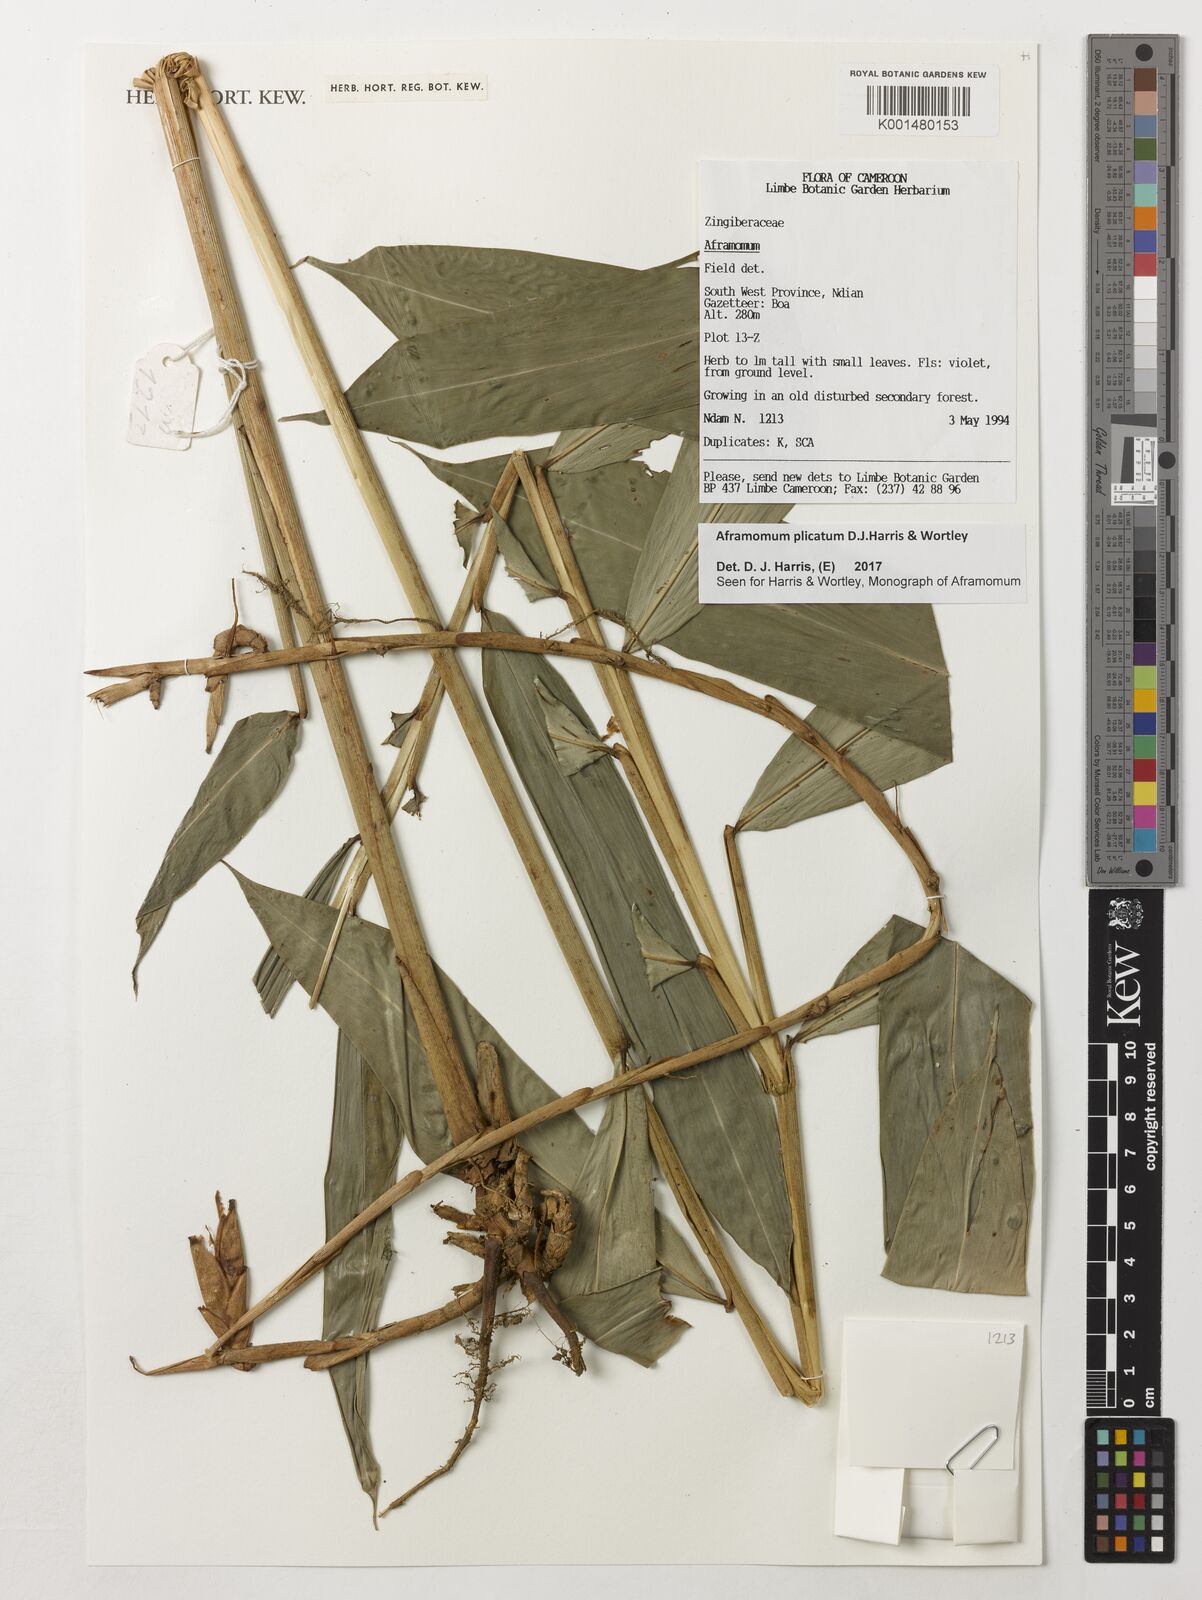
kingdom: Plantae
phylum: Tracheophyta
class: Liliopsida
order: Zingiberales
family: Zingiberaceae
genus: Aframomum
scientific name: Aframomum plicatum
